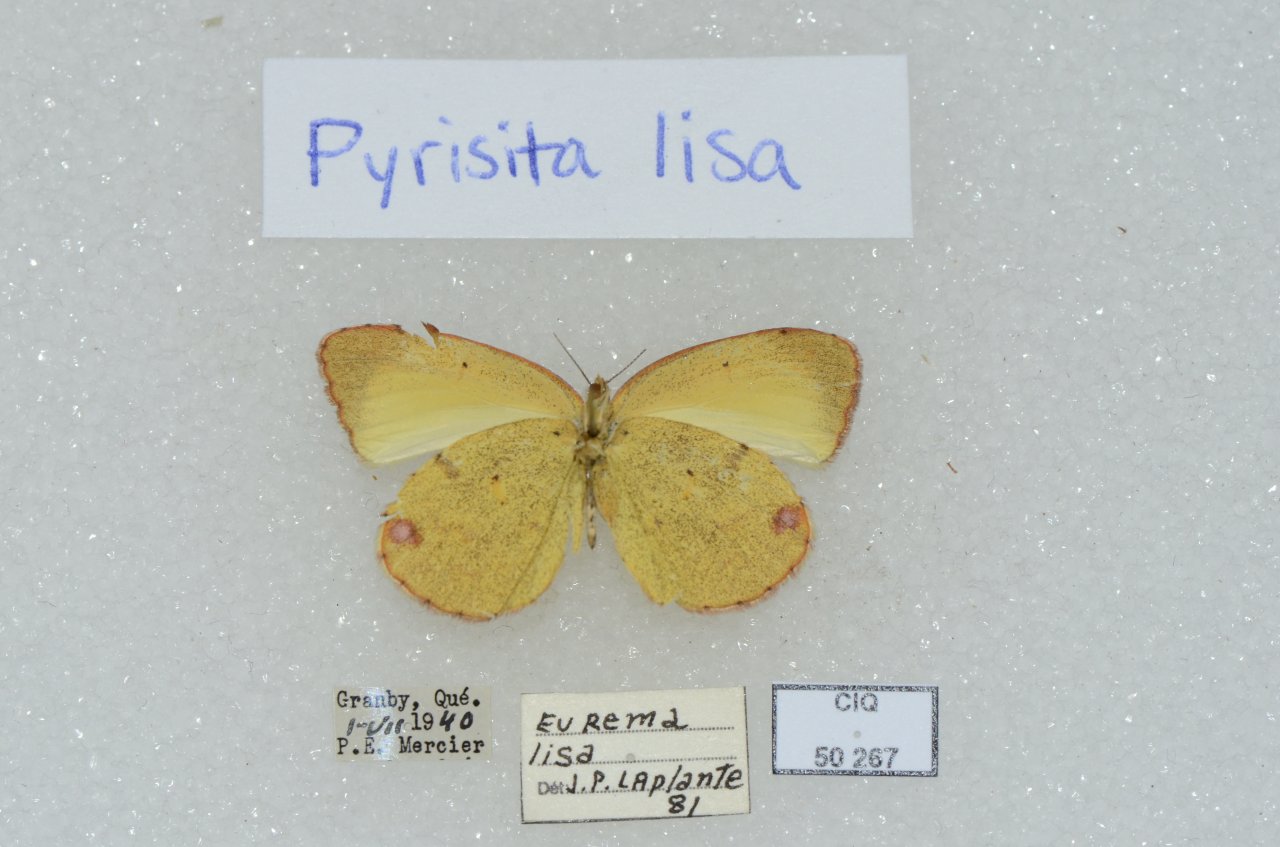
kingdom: Animalia
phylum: Arthropoda
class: Insecta
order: Lepidoptera
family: Pieridae
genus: Pyrisitia
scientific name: Pyrisitia lisa
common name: Little Yellow
